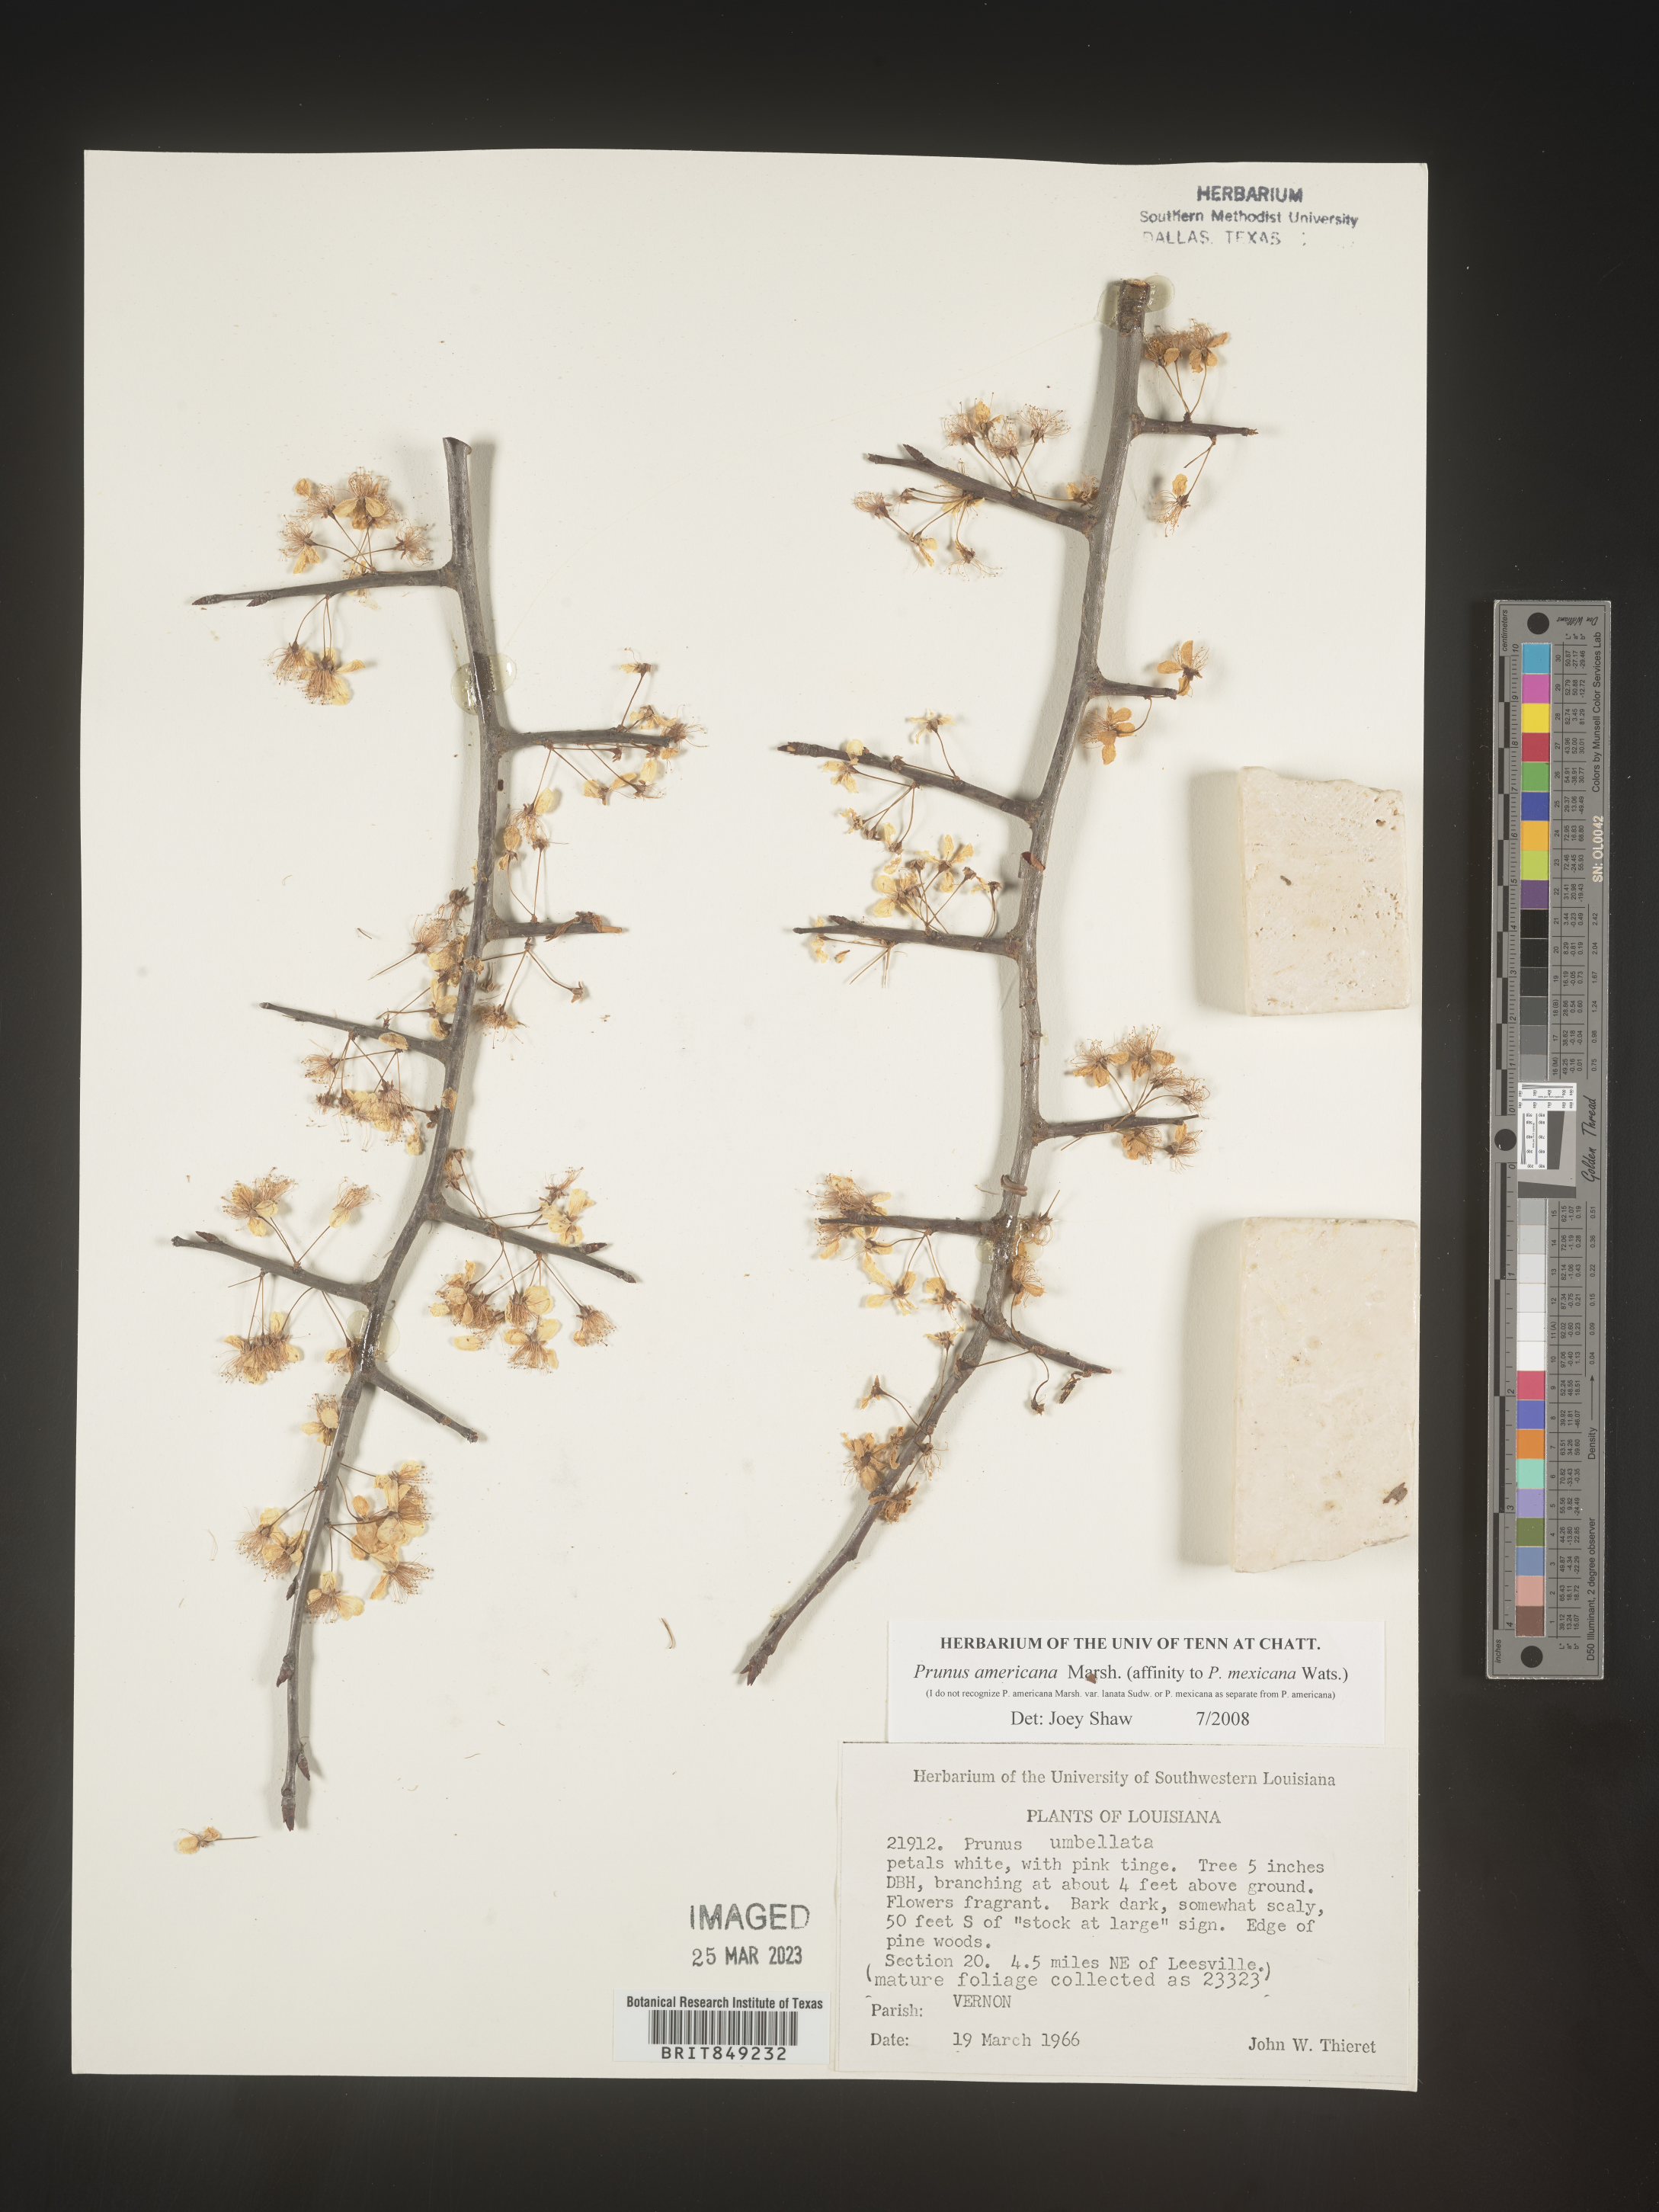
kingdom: Plantae
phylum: Tracheophyta
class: Magnoliopsida
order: Rosales
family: Rosaceae
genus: Prunus
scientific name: Prunus americana
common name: American plum
